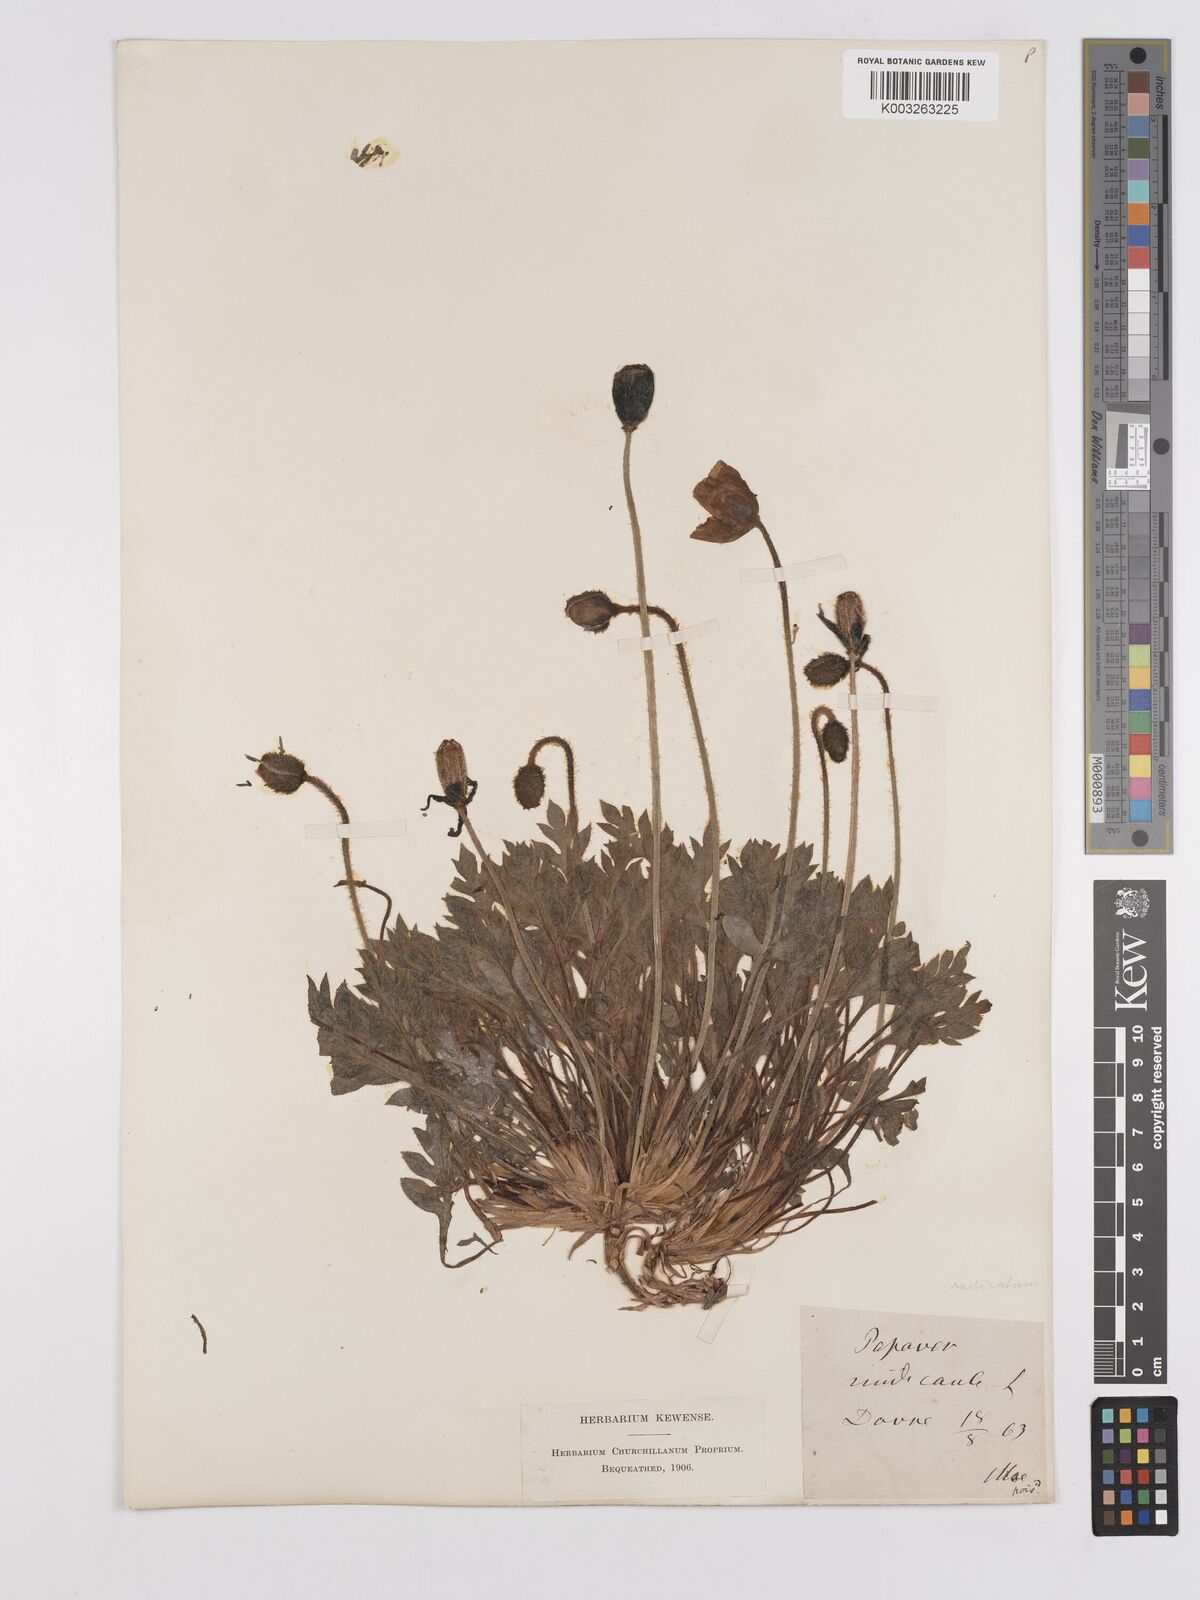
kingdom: Plantae
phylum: Tracheophyta
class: Magnoliopsida
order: Ranunculales
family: Papaveraceae
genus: Papaver
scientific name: Papaver radicatum
